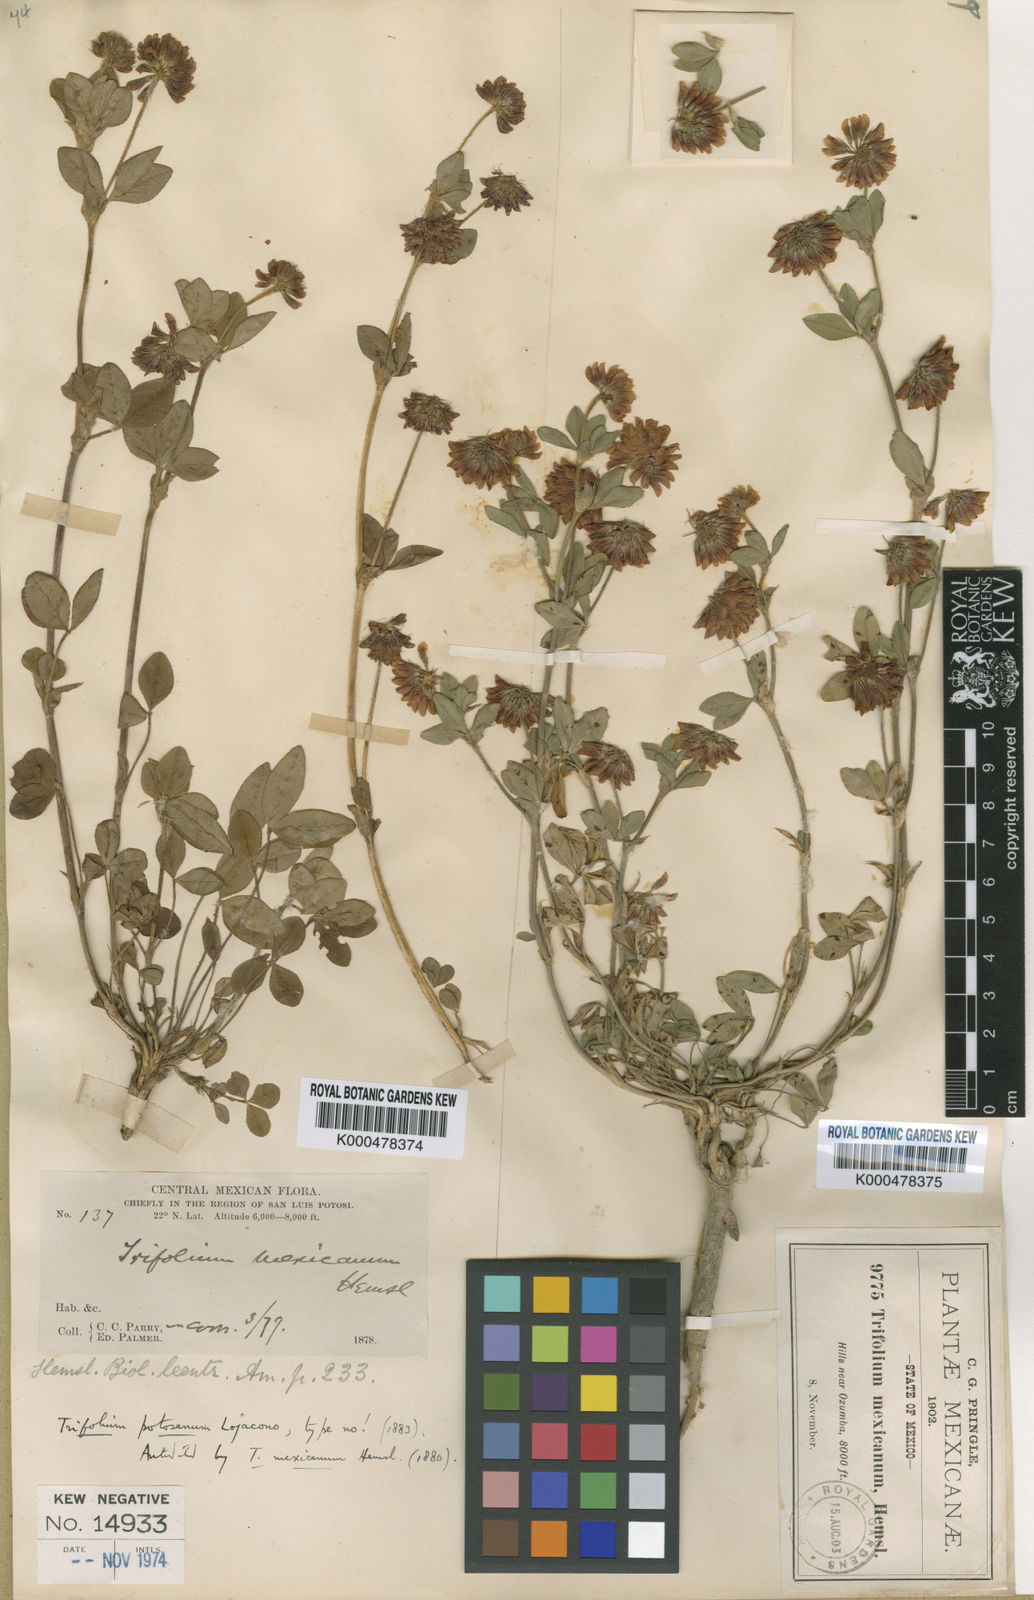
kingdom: Plantae
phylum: Tracheophyta
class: Magnoliopsida
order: Fabales
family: Fabaceae
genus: Trifolium
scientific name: Trifolium amabile
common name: Aztec clover
